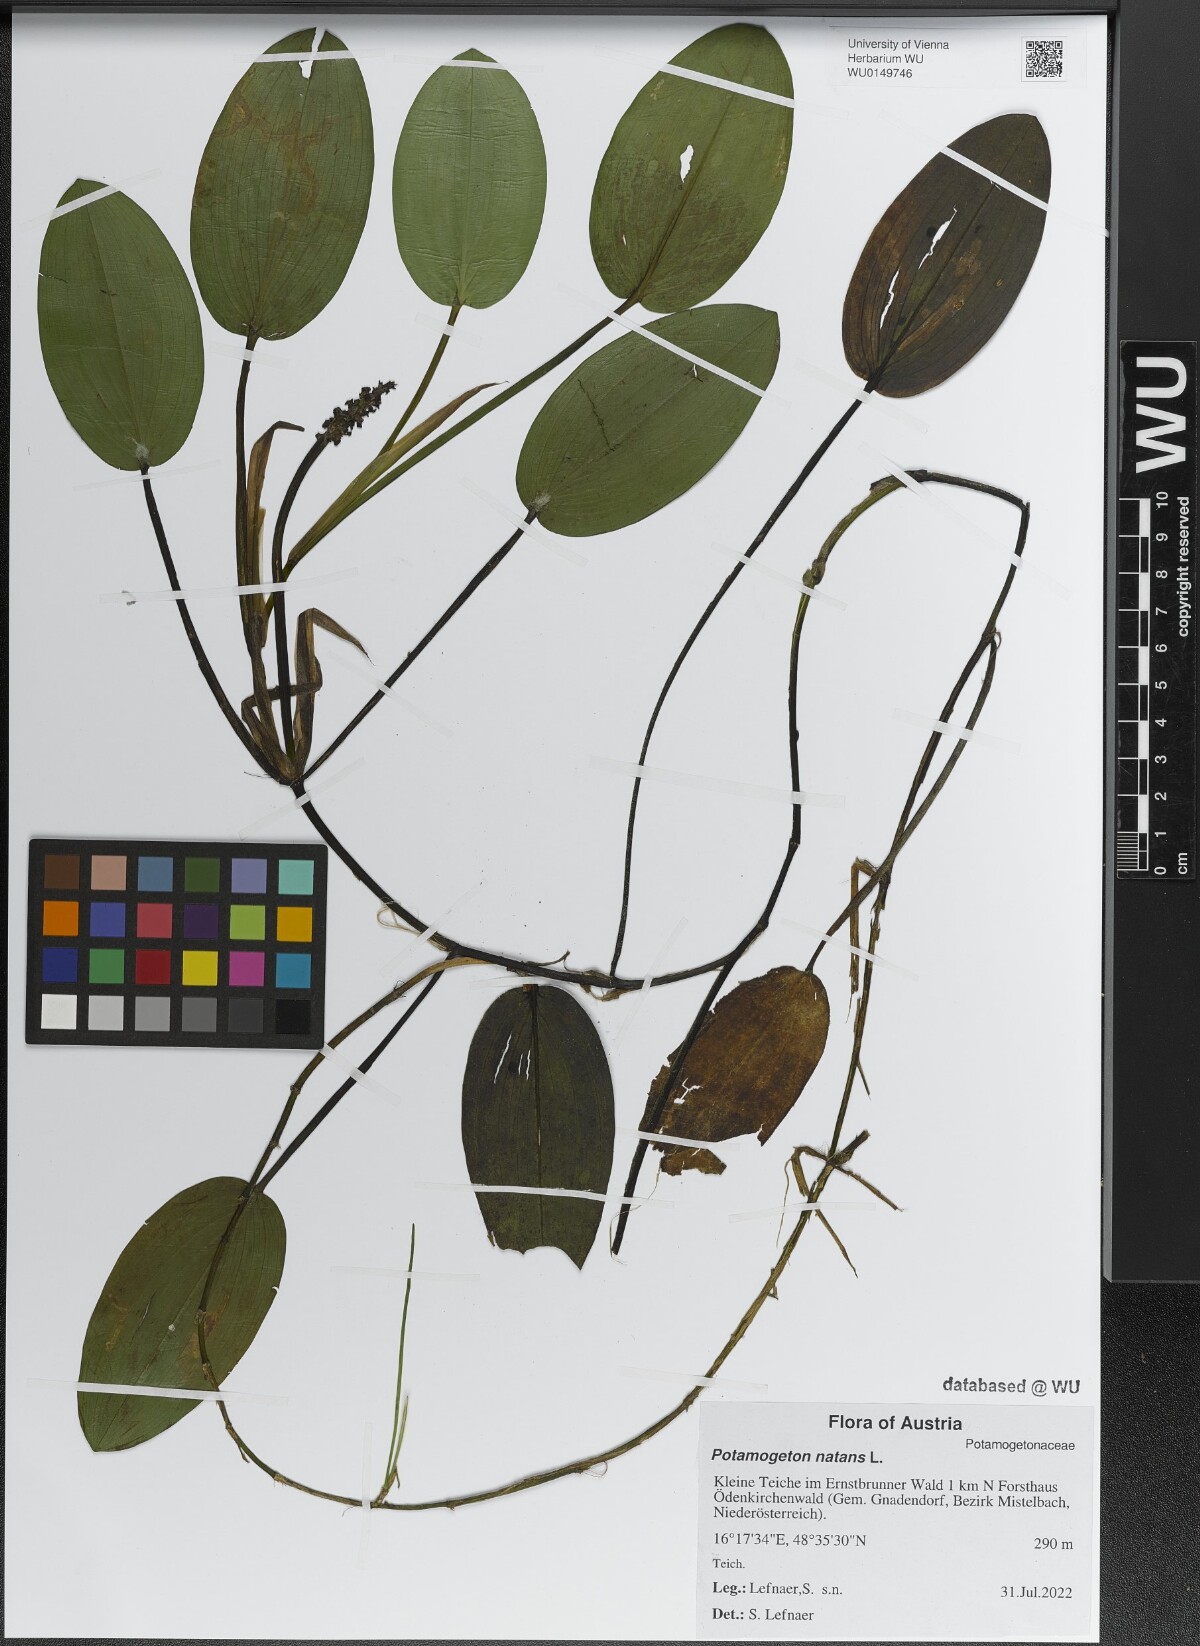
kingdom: Plantae
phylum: Tracheophyta
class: Liliopsida
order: Alismatales
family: Potamogetonaceae
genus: Potamogeton
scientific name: Potamogeton natans
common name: Broad-leaved pondweed
